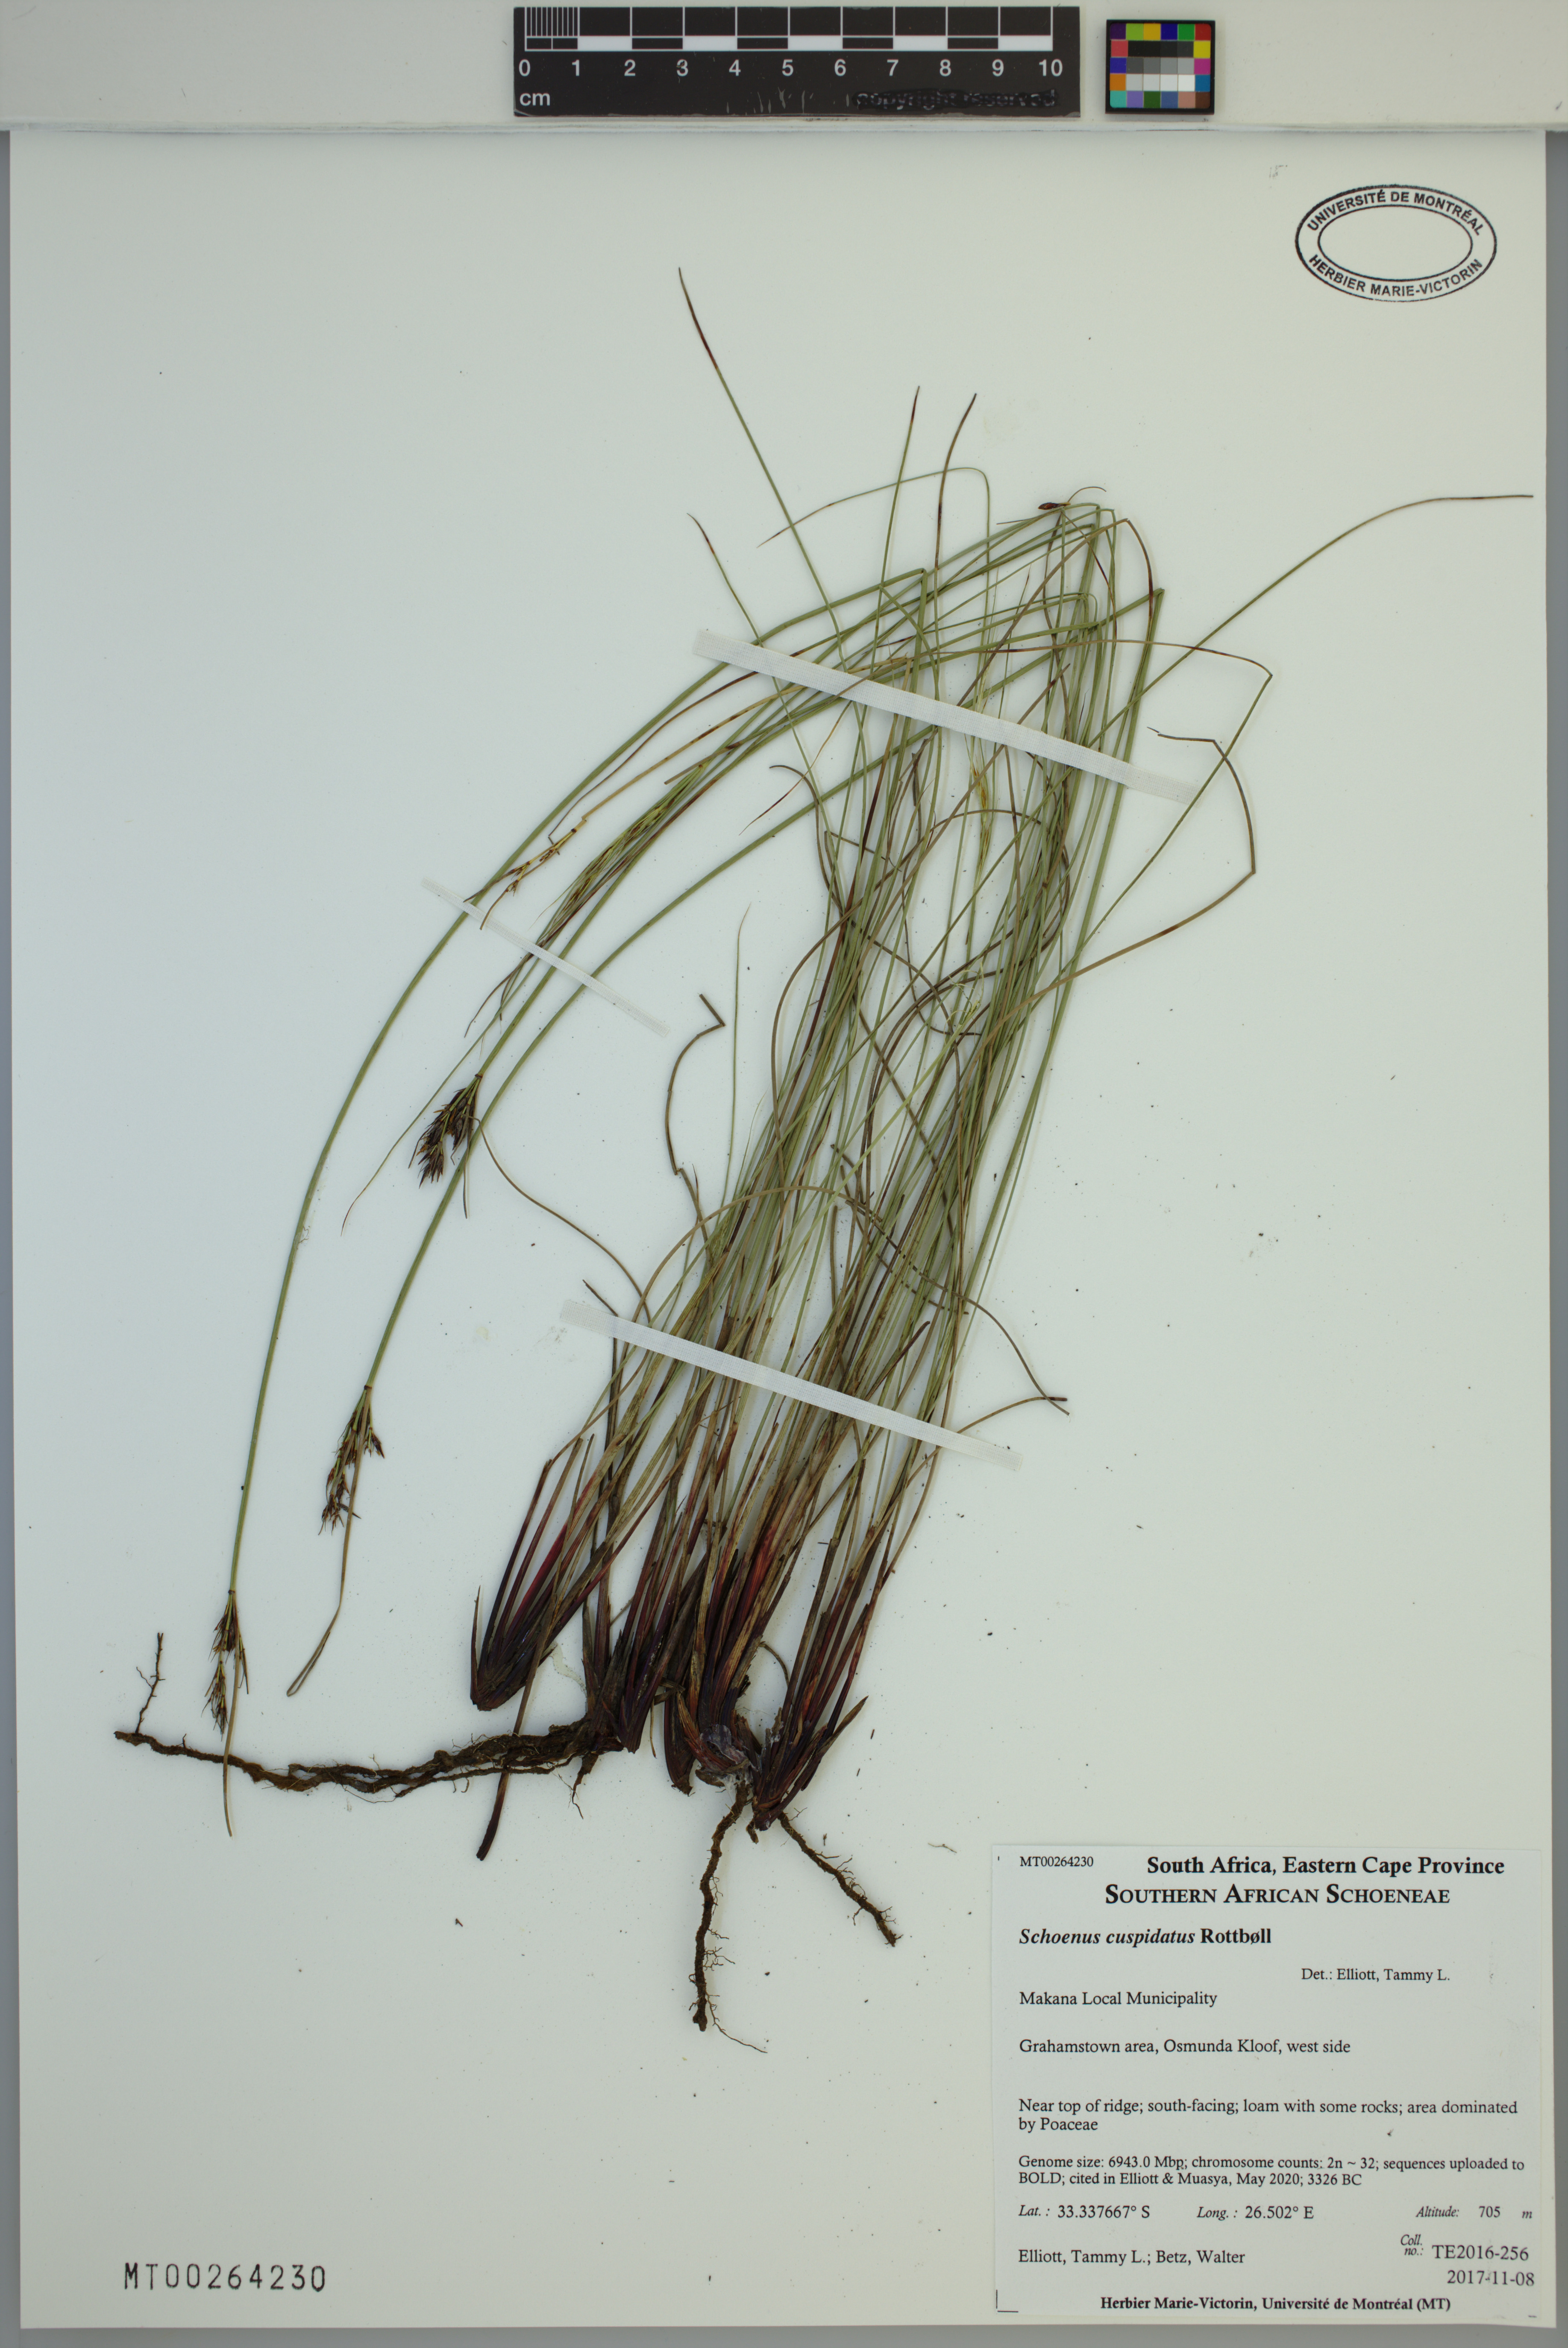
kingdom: Plantae
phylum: Tracheophyta
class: Liliopsida
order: Poales
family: Cyperaceae
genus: Schoenus
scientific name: Schoenus cuspidatus
